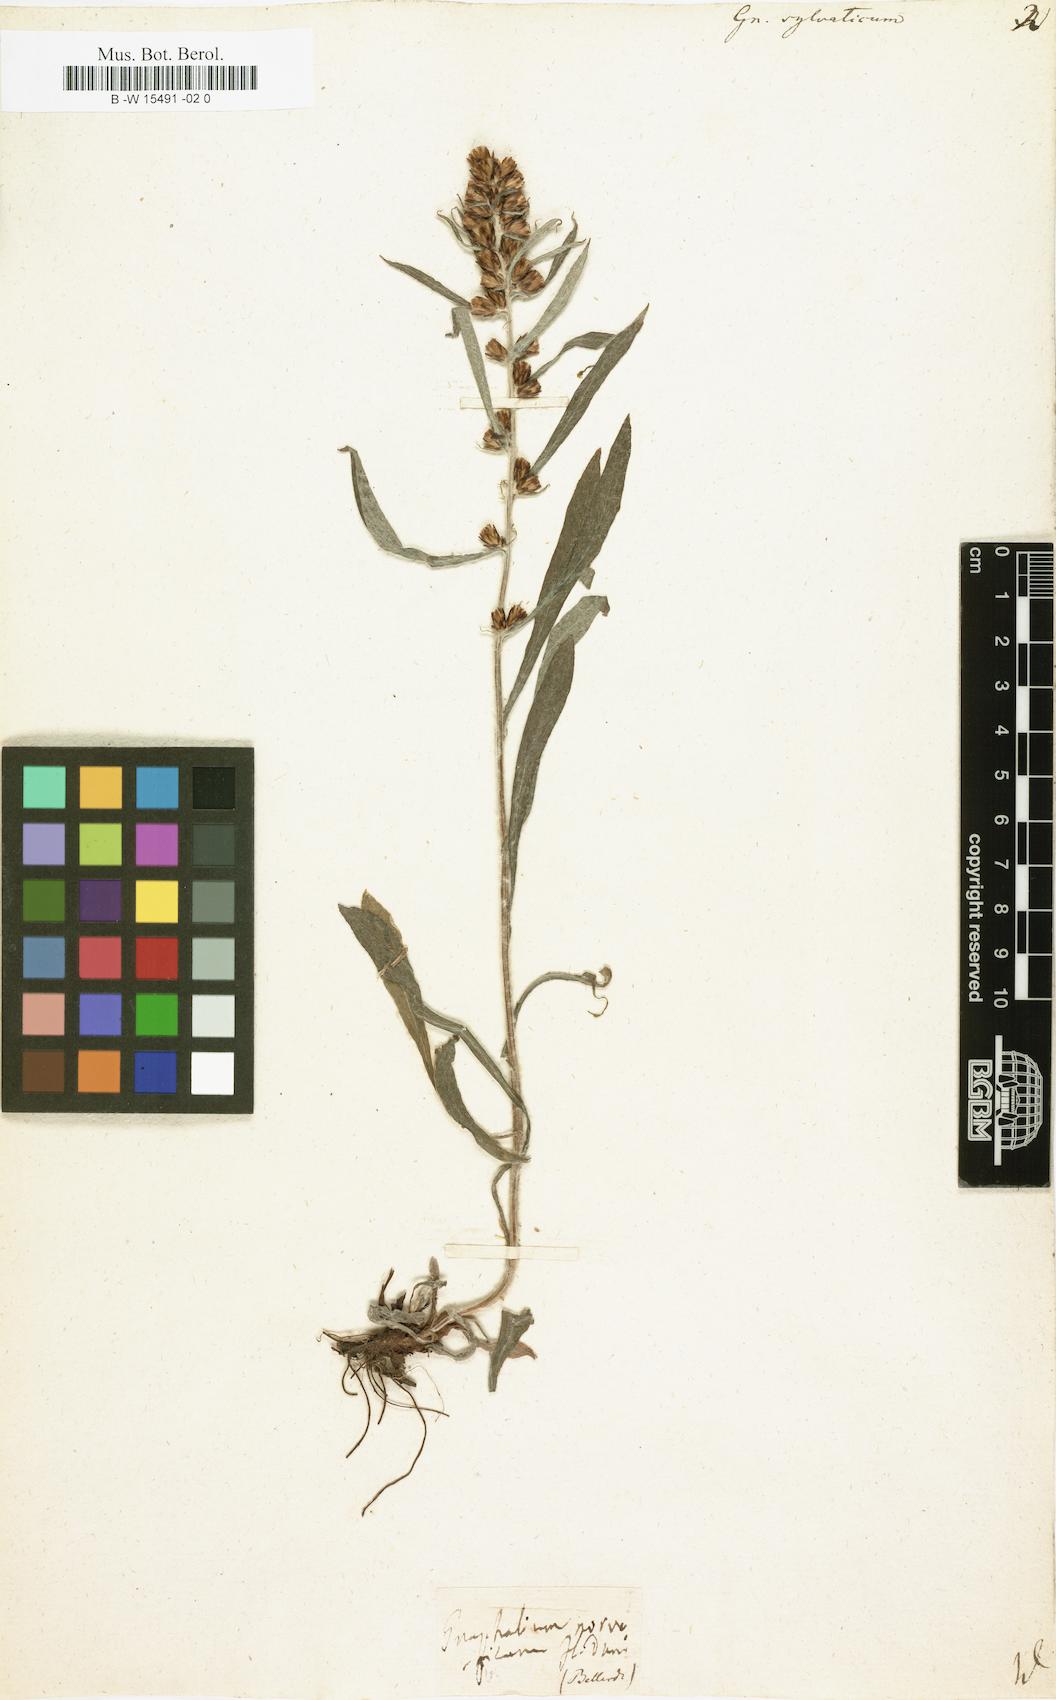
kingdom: Plantae
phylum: Tracheophyta
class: Magnoliopsida
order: Asterales
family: Asteraceae
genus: Gnaphalium
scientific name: Gnaphalium sylvaticum
